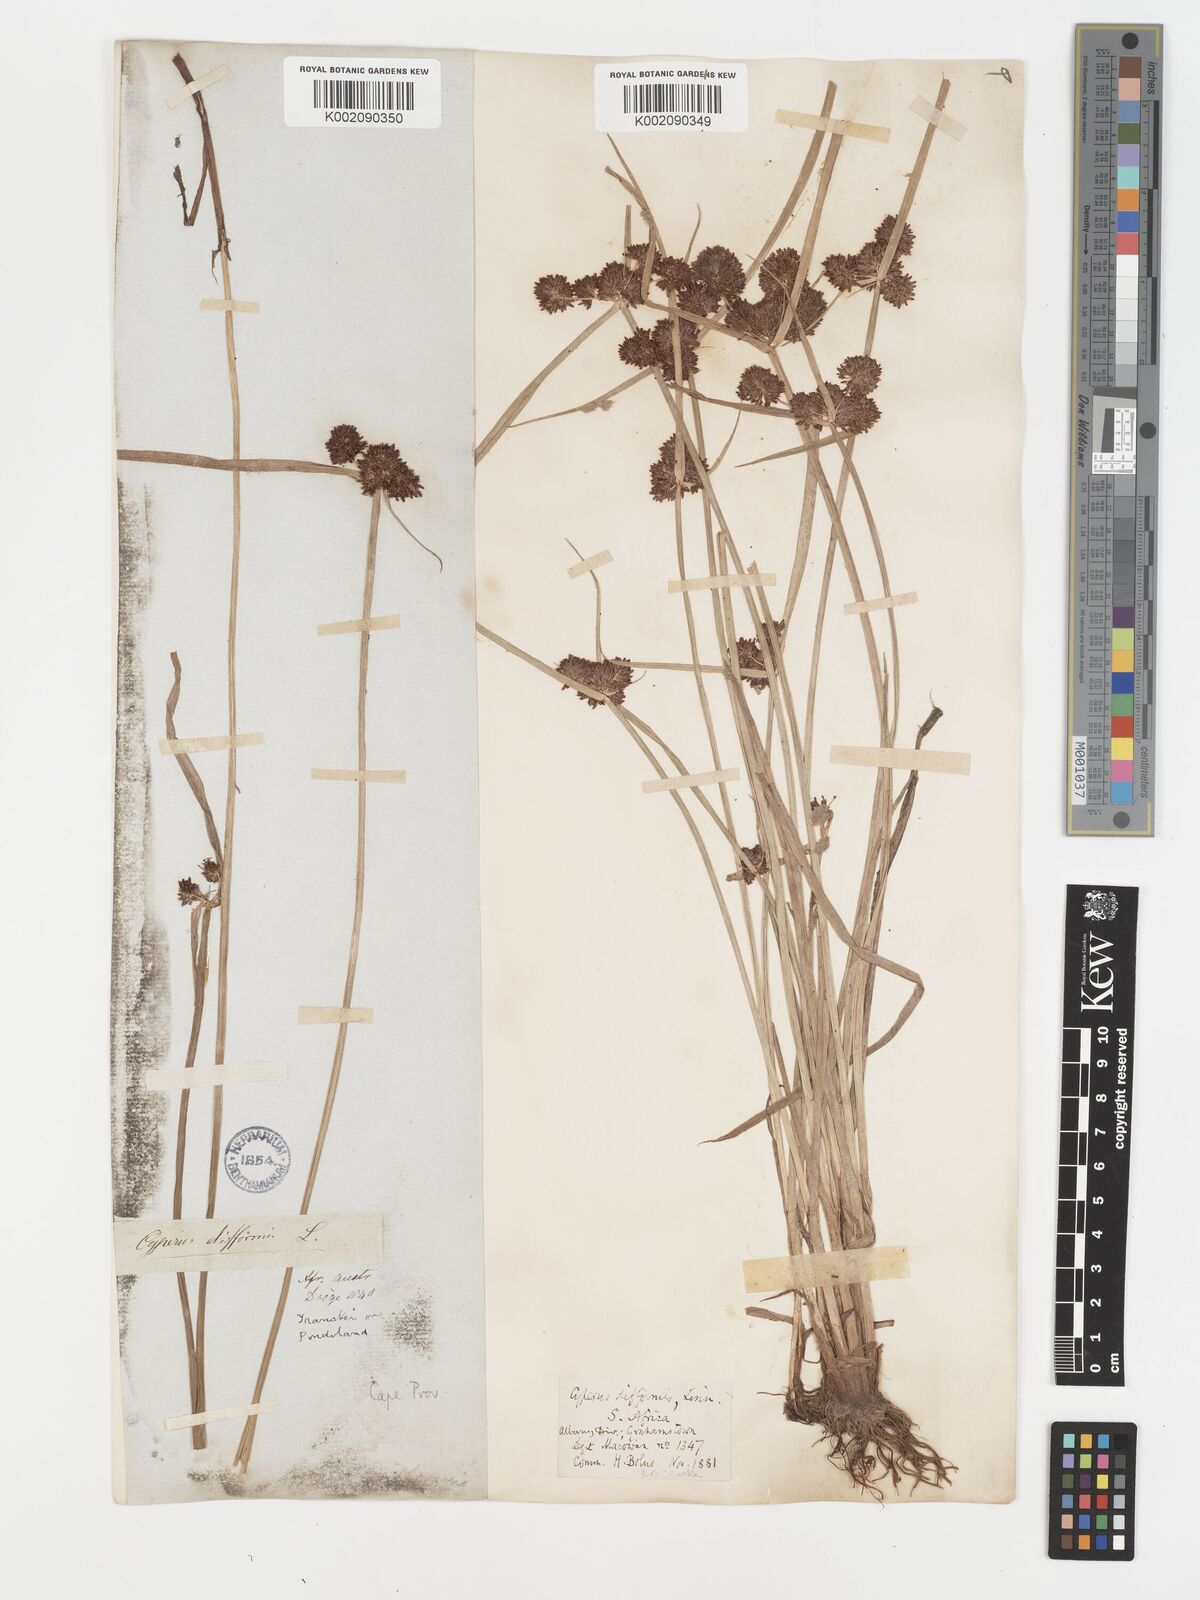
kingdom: Plantae
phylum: Tracheophyta
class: Liliopsida
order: Poales
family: Cyperaceae
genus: Cyperus
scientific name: Cyperus difformis
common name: Variable flatsedge
